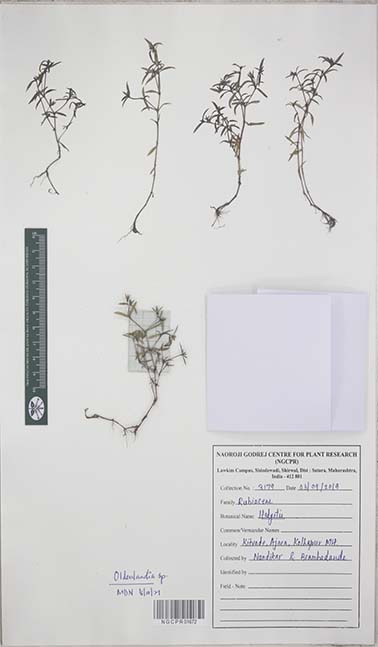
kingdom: Plantae
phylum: Tracheophyta
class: Magnoliopsida
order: Gentianales
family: Rubiaceae
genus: Oldenlandia
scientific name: Oldenlandia
